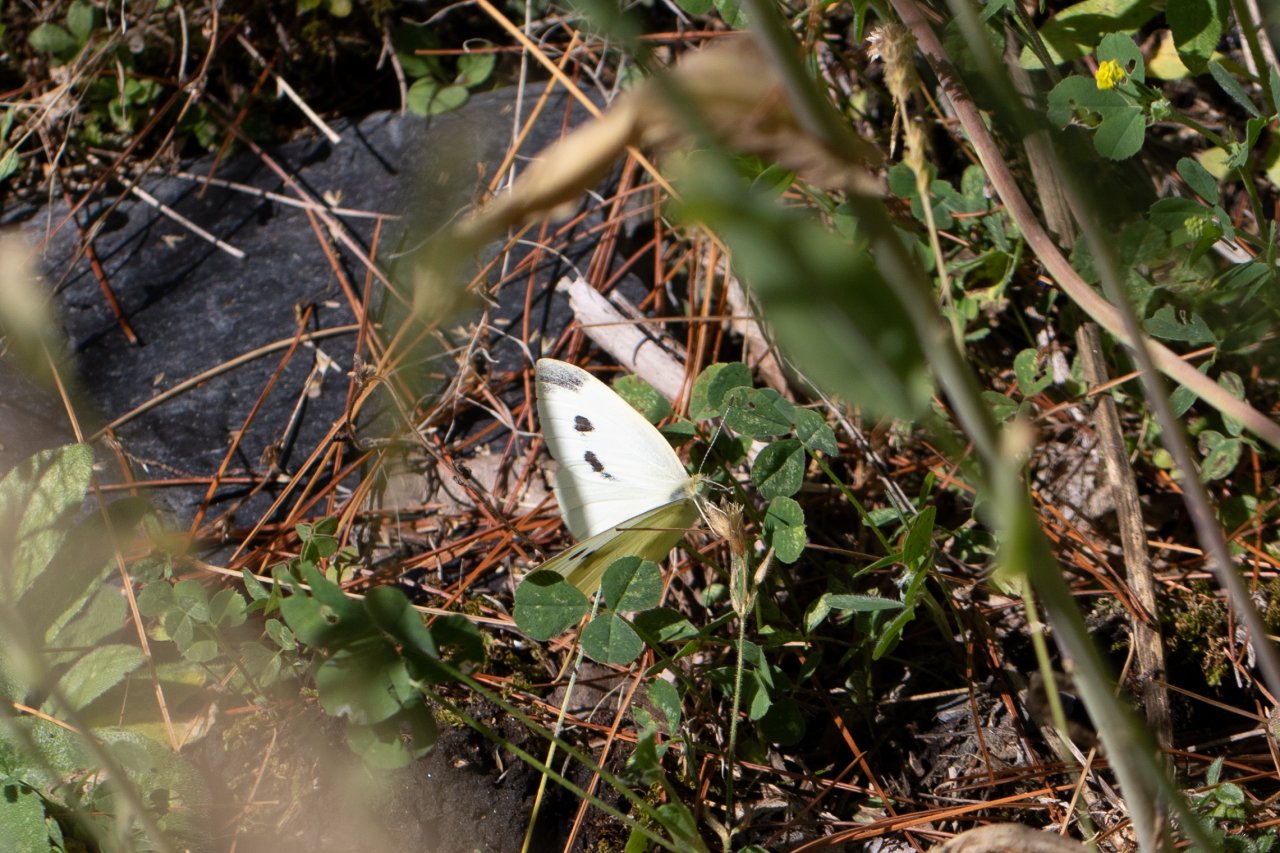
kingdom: Animalia
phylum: Arthropoda
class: Insecta
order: Lepidoptera
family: Pieridae
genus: Pieris
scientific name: Pieris rapae
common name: Cabbage White
